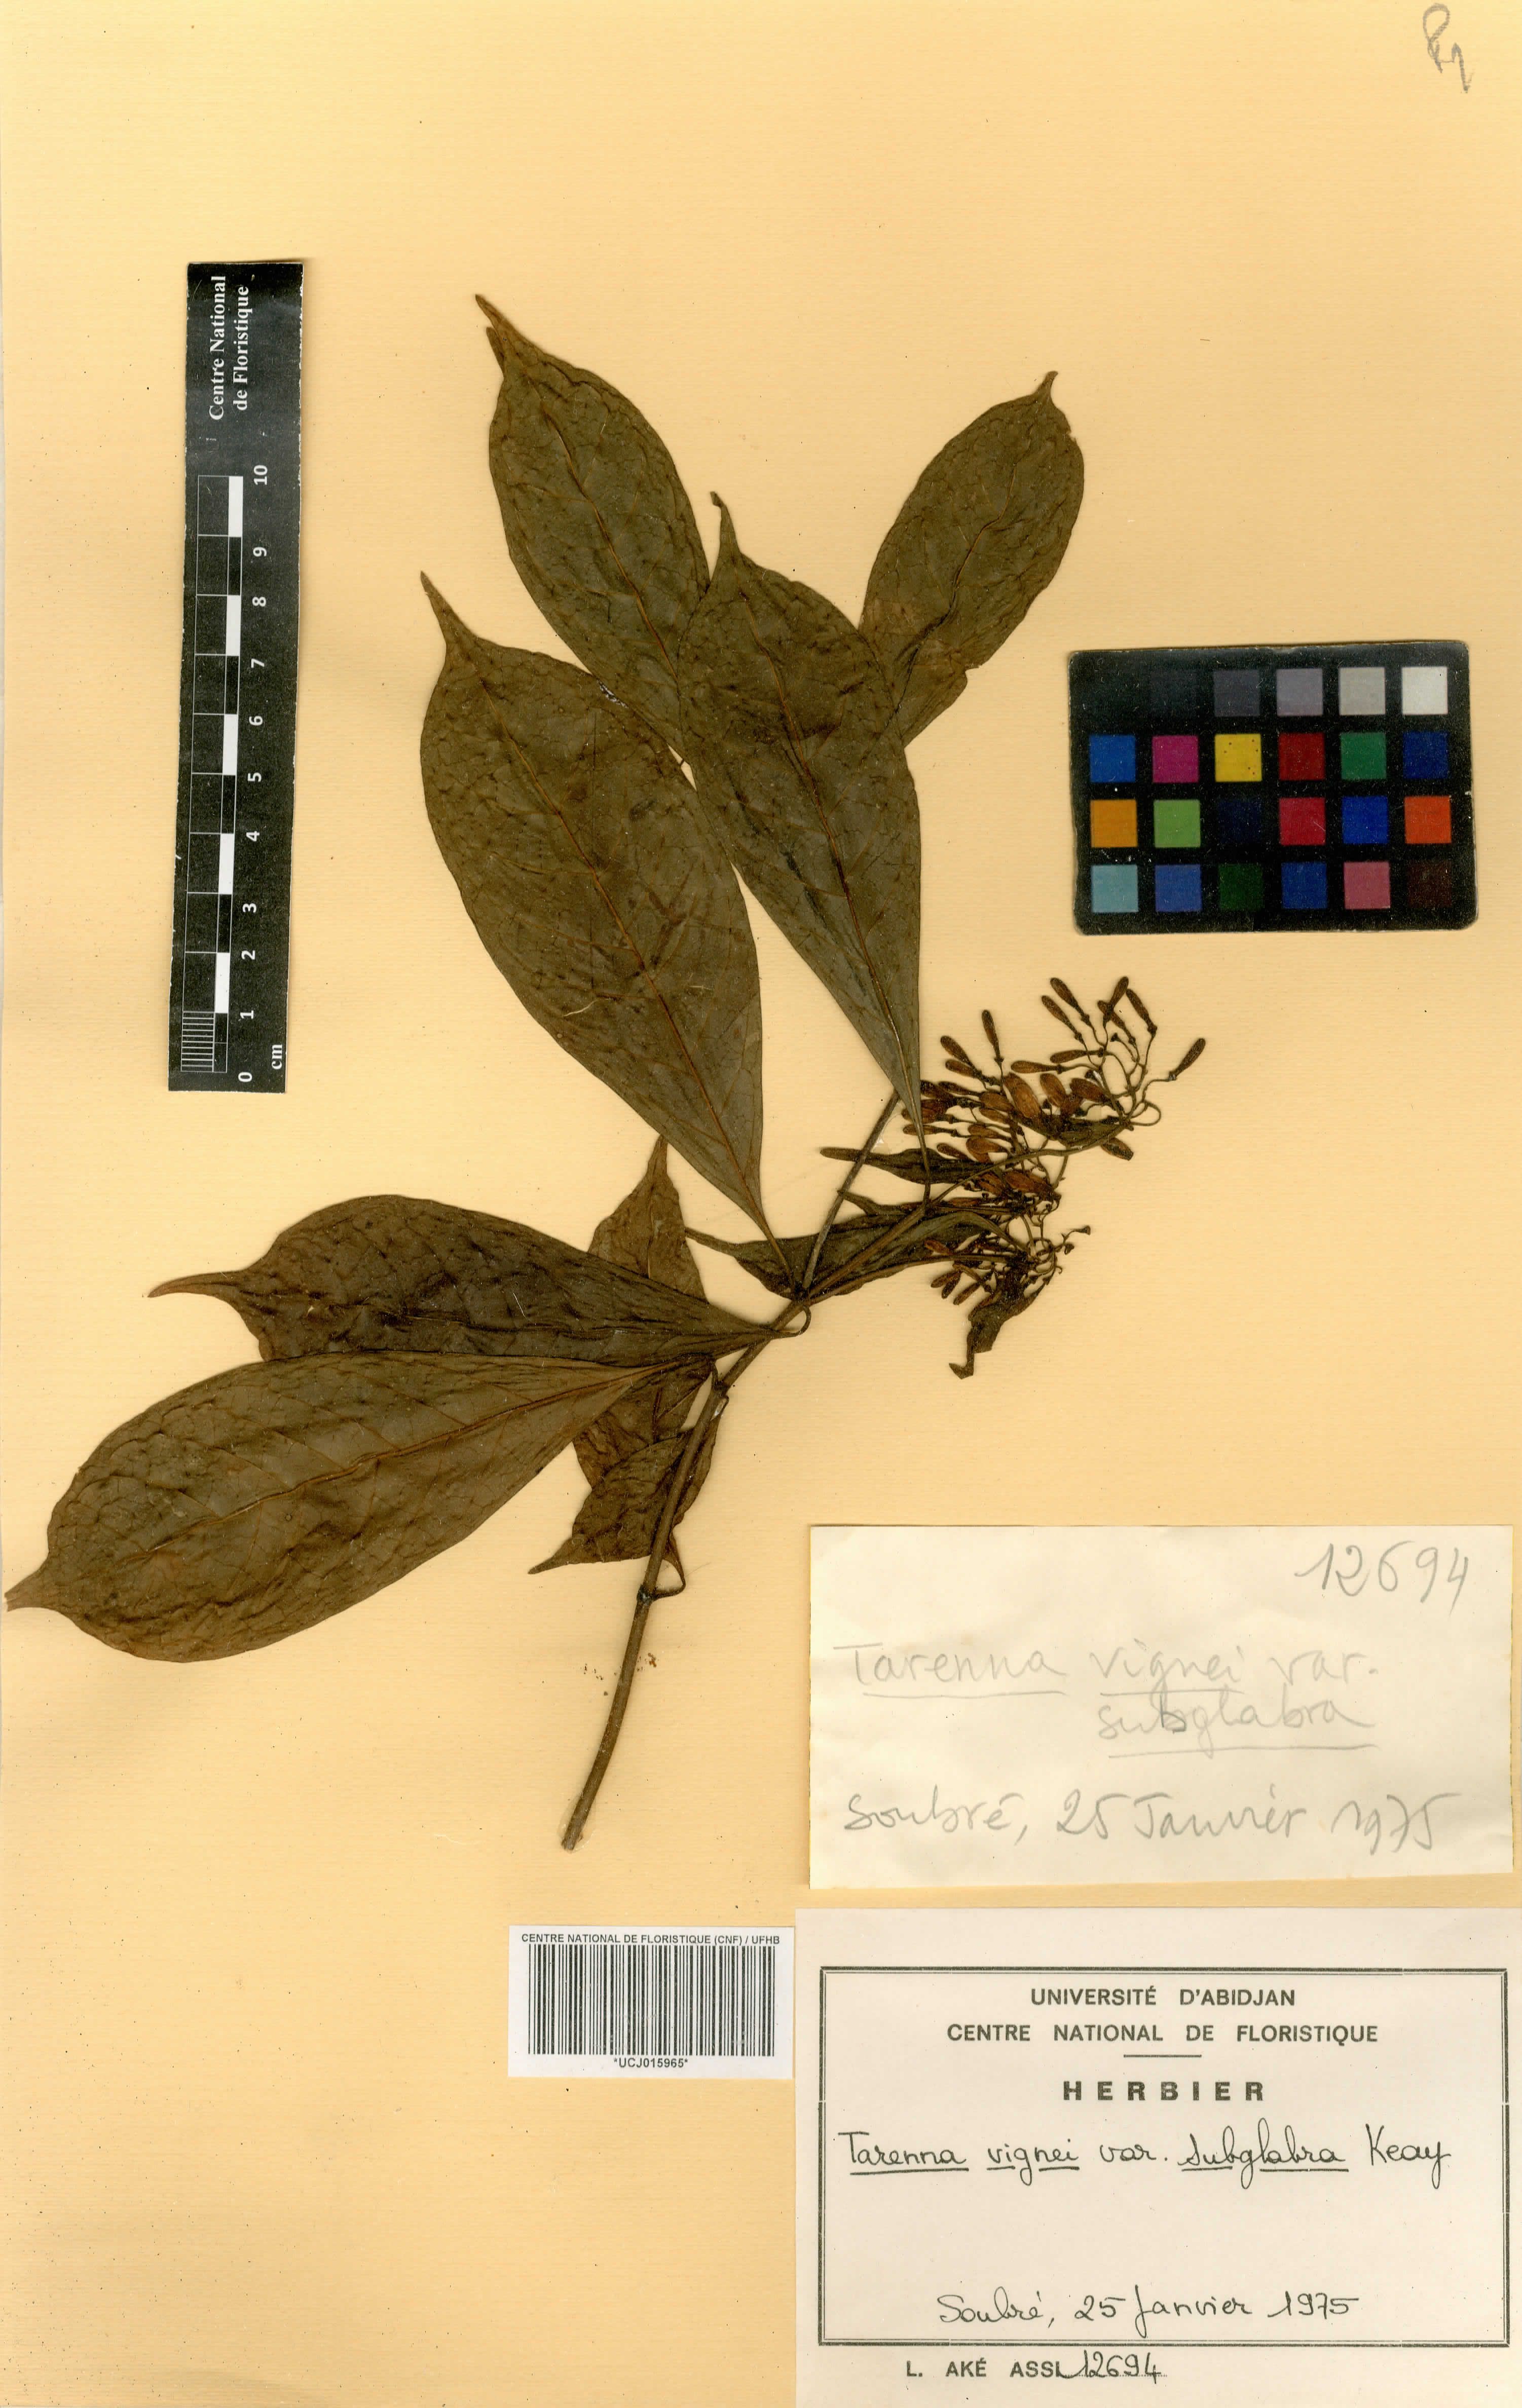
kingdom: Plantae
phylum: Tracheophyta
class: Magnoliopsida
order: Gentianales
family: Rubiaceae
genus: Tarenna
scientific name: Tarenna vignei
